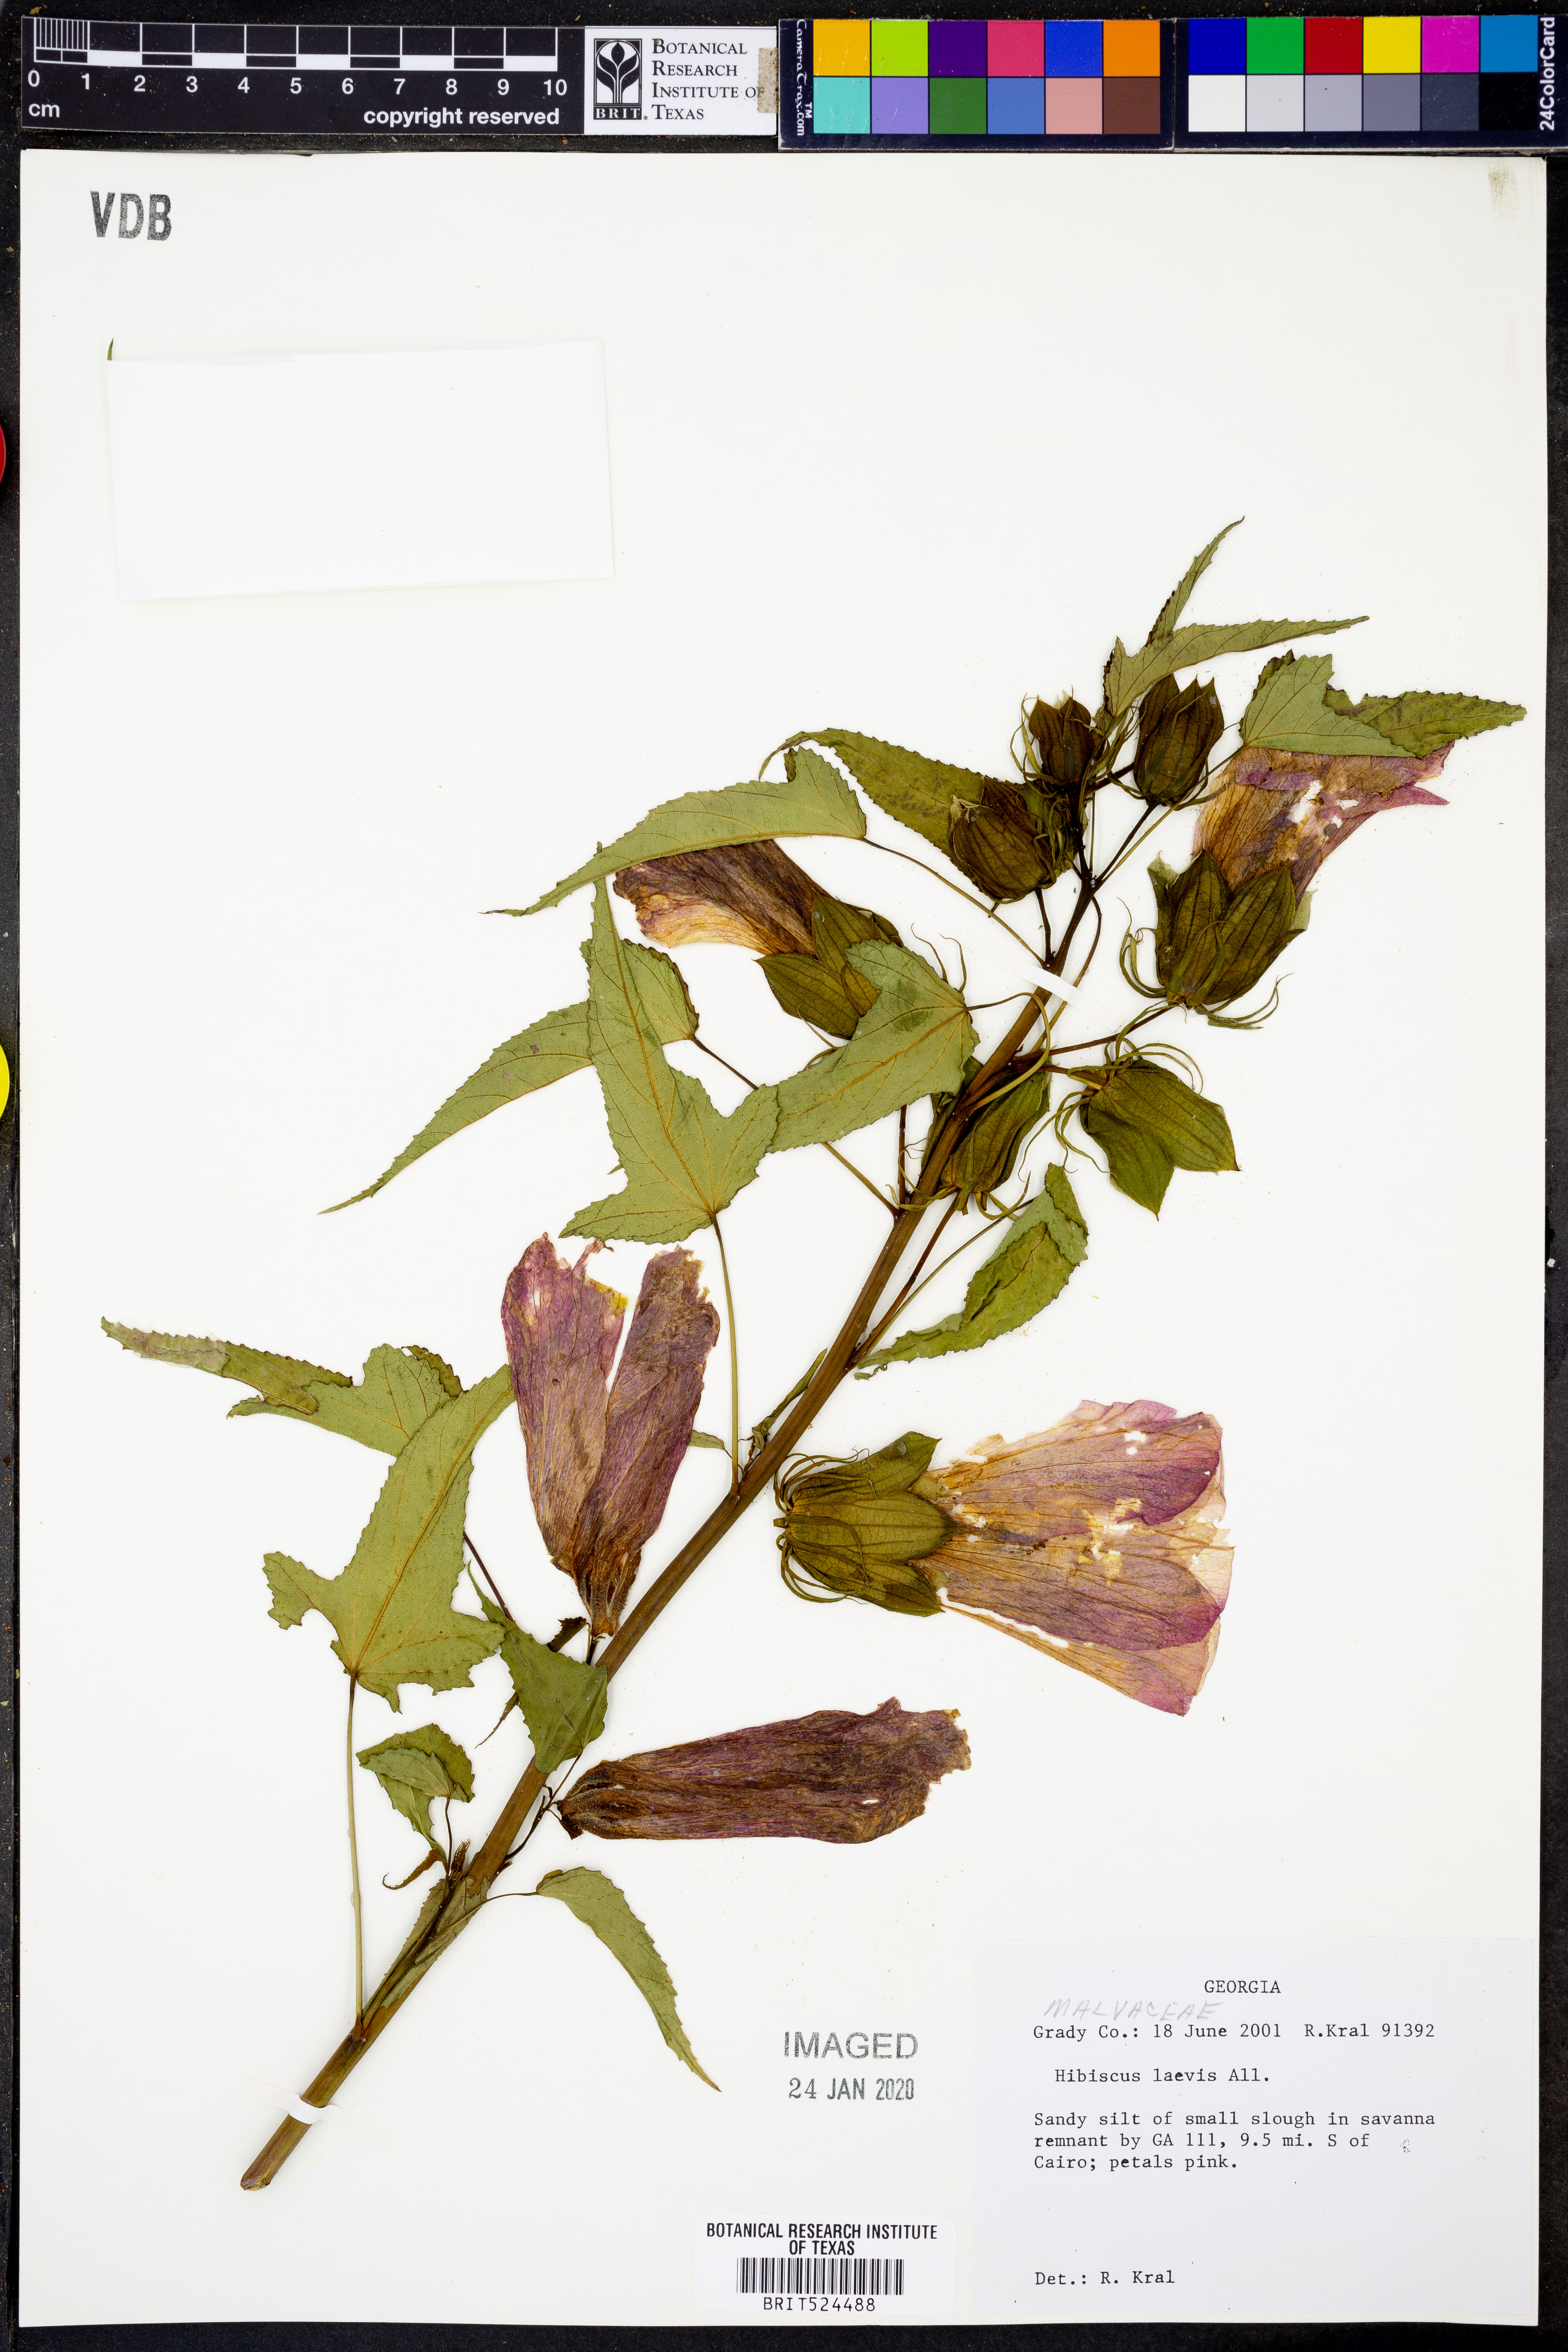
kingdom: Plantae
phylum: Tracheophyta
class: Magnoliopsida
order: Malvales
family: Malvaceae
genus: Hibiscus
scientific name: Hibiscus laevis
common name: Scarlet rose-mallow
